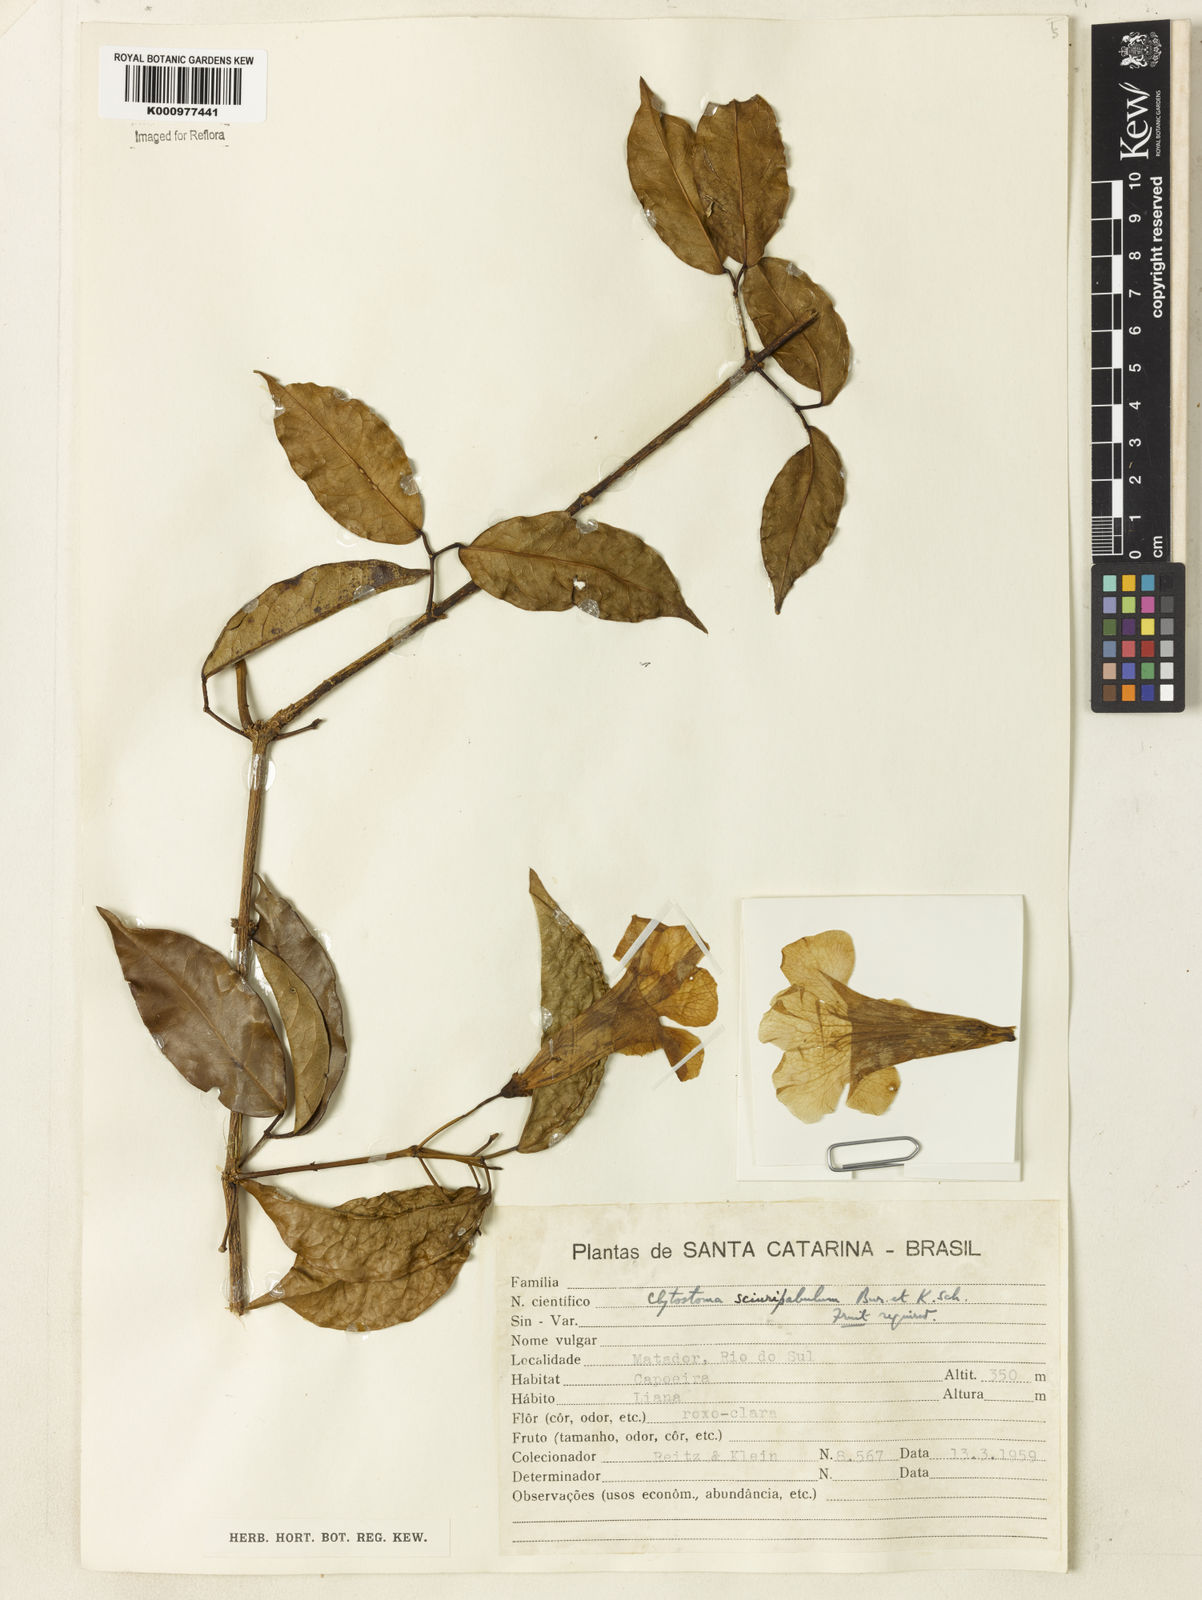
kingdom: Plantae
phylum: Tracheophyta
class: Magnoliopsida
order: Lamiales
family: Bignoniaceae
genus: Bignonia
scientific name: Bignonia
